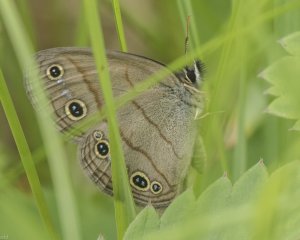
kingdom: Animalia
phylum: Arthropoda
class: Insecta
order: Lepidoptera
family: Nymphalidae
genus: Euptychia
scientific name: Euptychia cymela
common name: Little Wood Satyr
